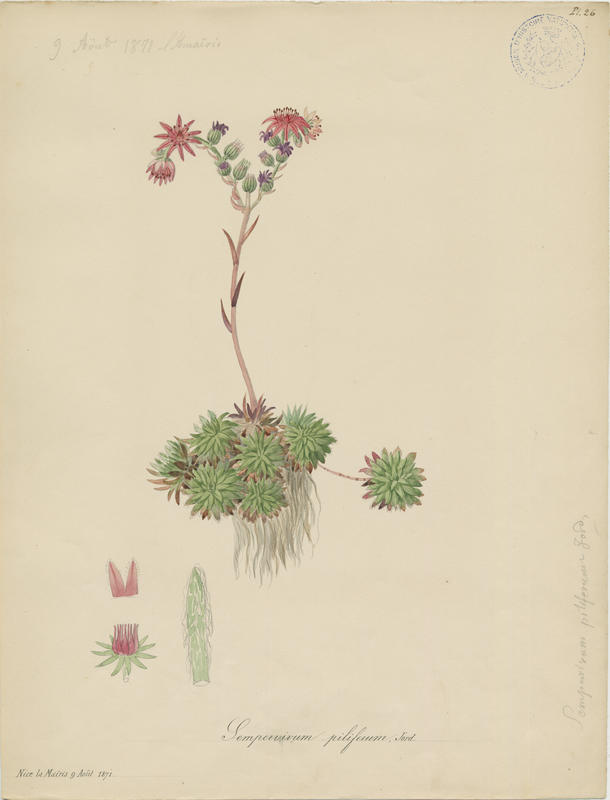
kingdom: Plantae
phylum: Tracheophyta
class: Magnoliopsida
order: Saxifragales
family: Crassulaceae
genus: Sempervivum
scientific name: Sempervivum alatum
